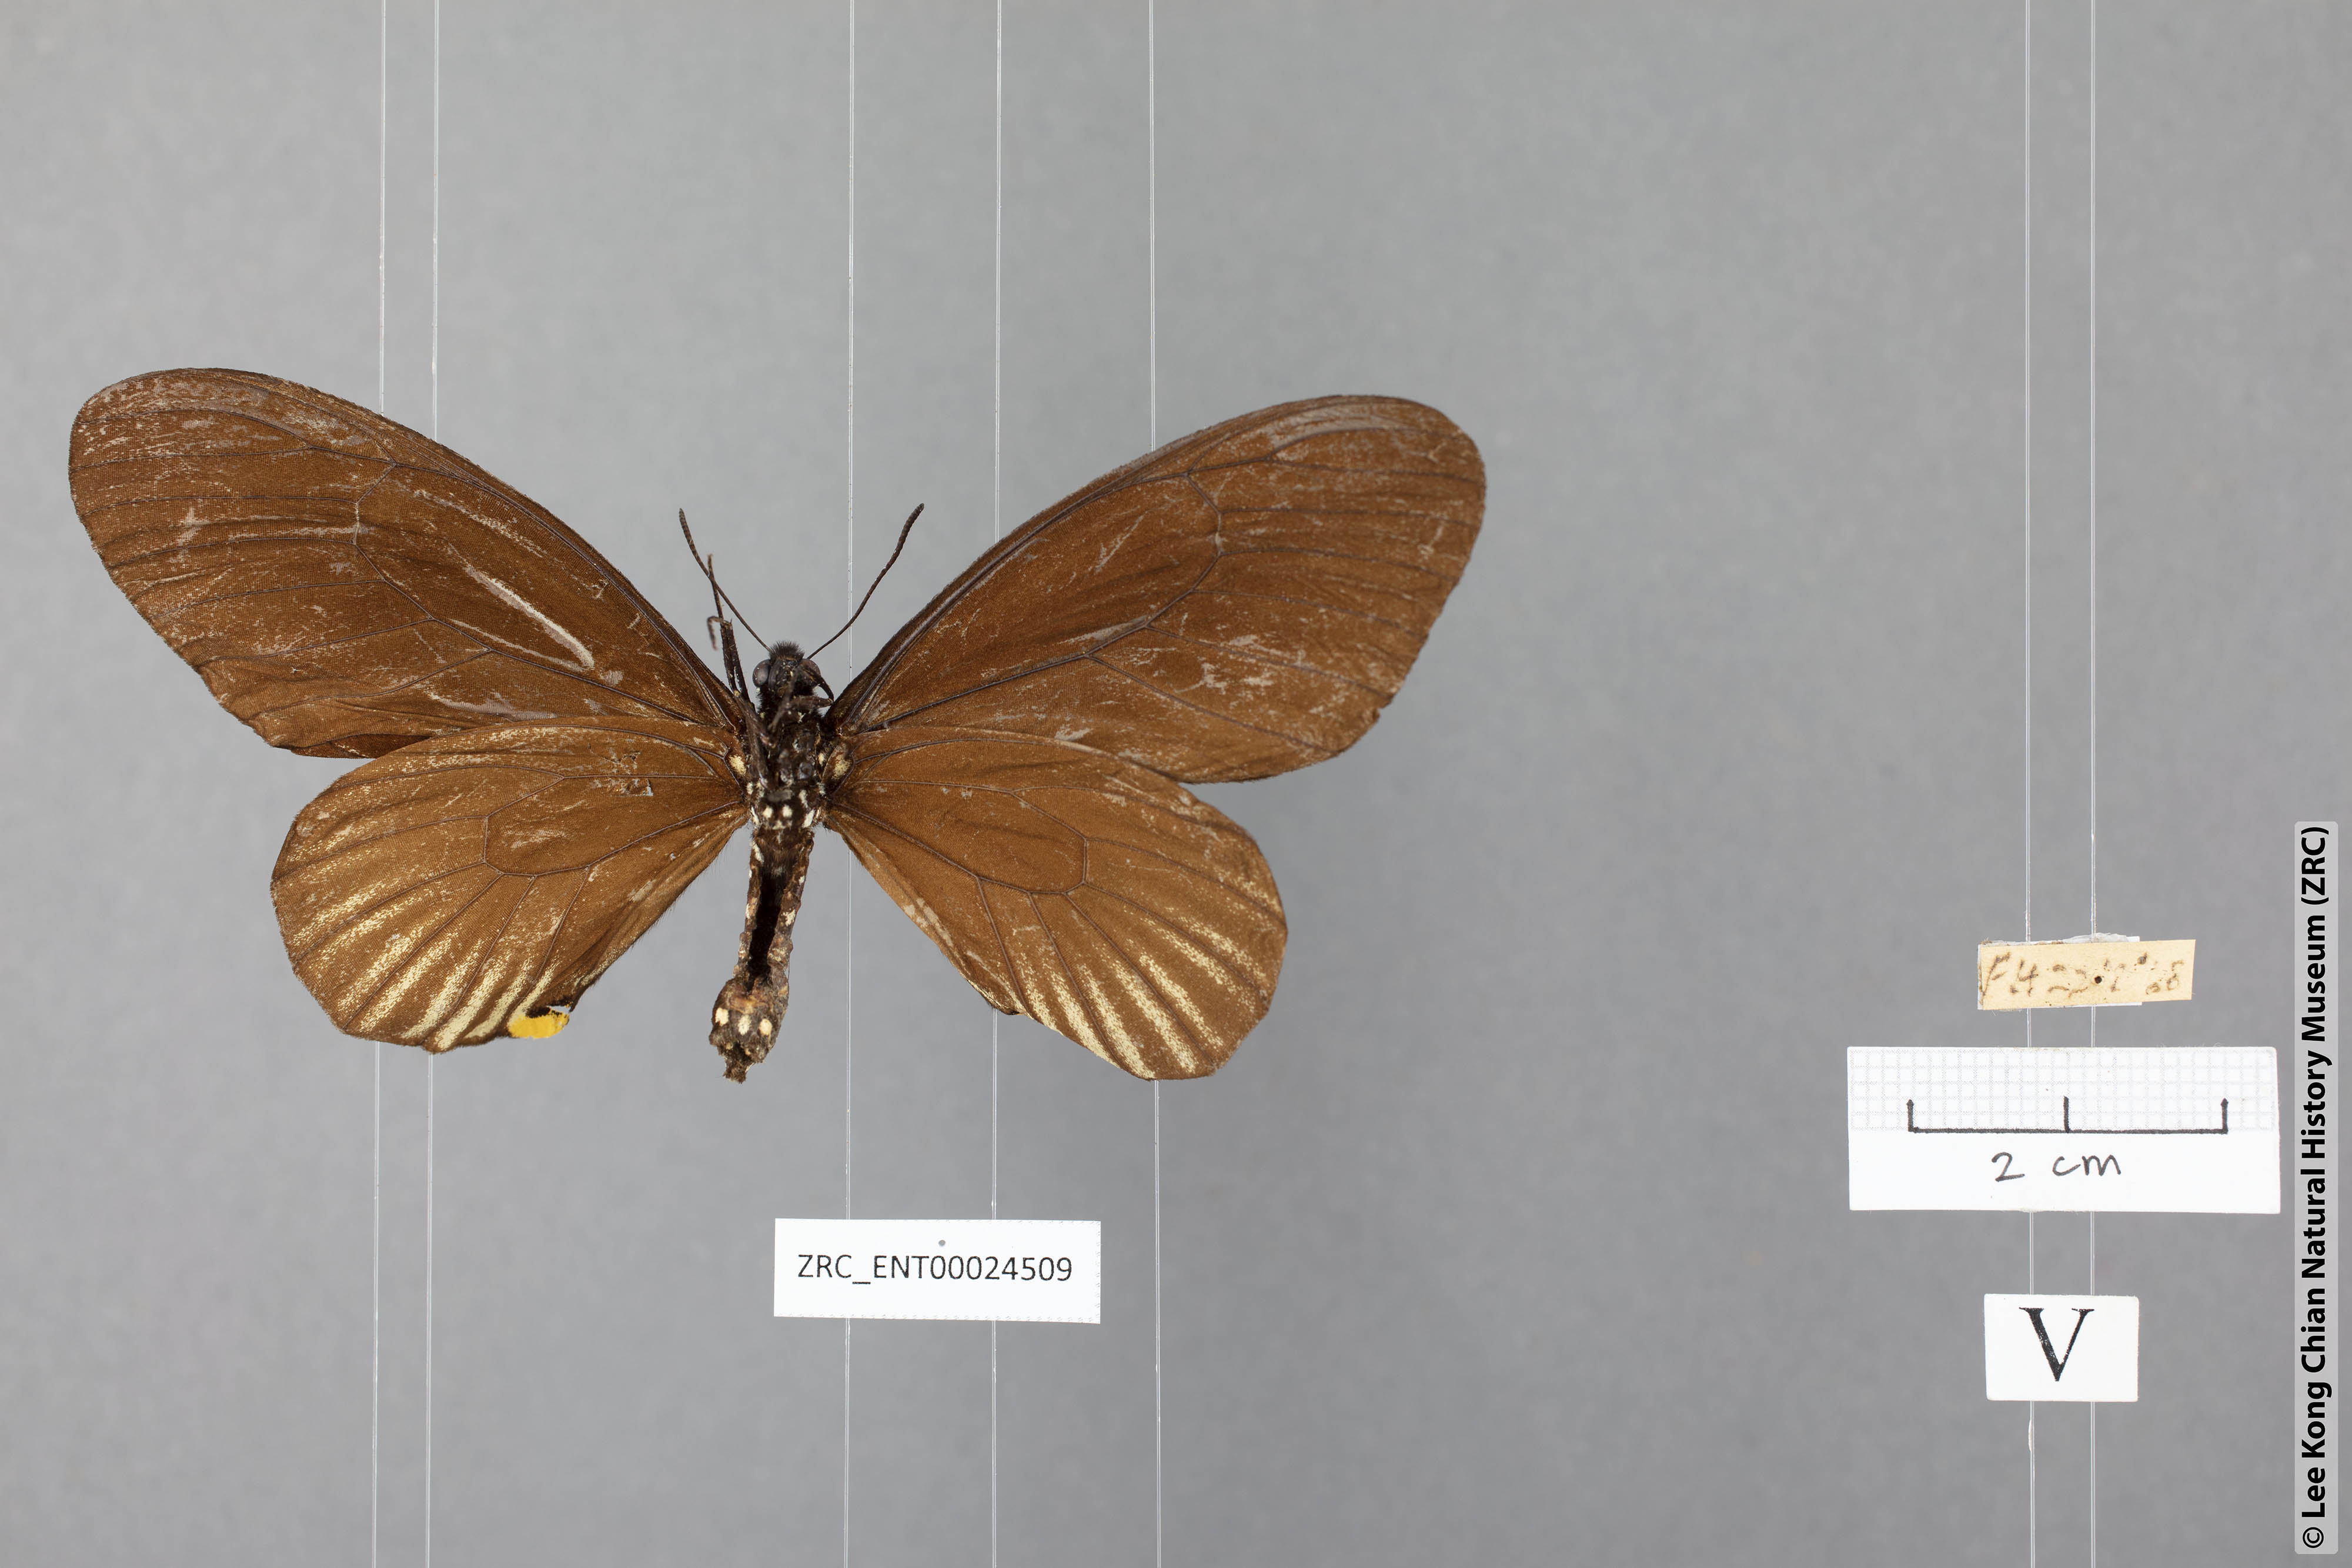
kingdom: Animalia
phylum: Arthropoda
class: Insecta
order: Lepidoptera
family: Papilionidae
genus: Chilasa
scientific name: Chilasa slateri
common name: Blue-striped mime
